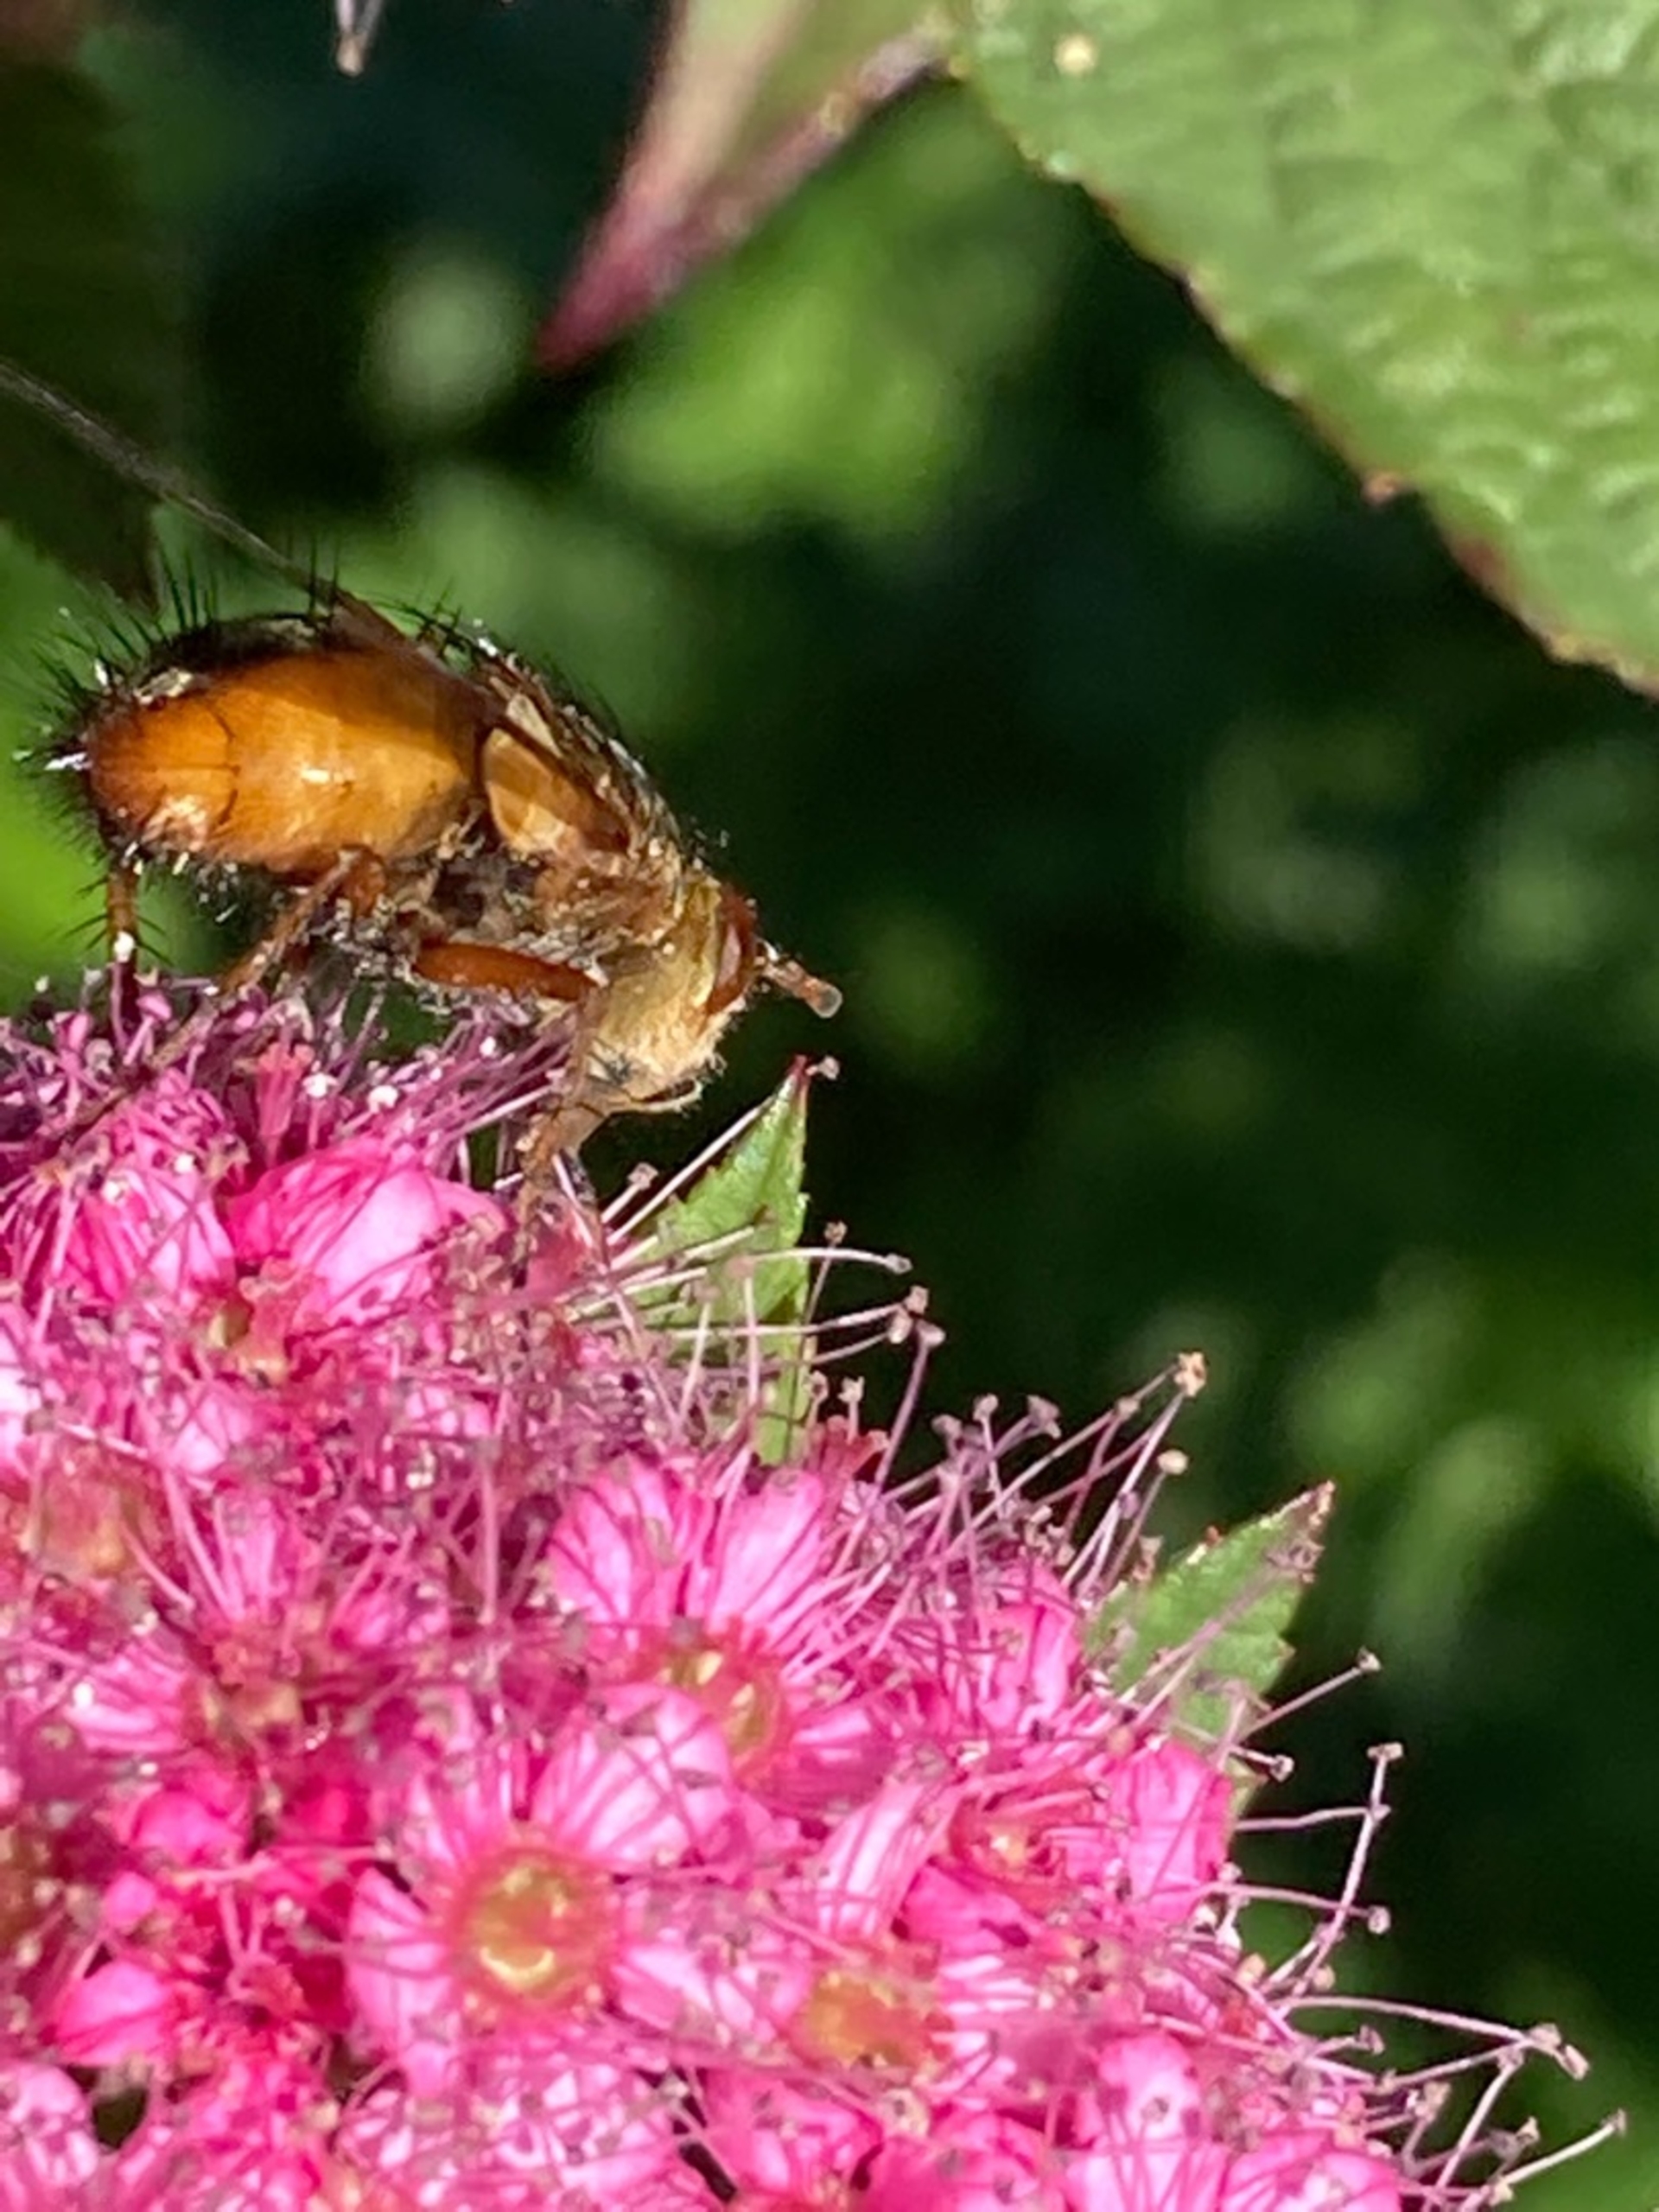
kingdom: Animalia
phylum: Arthropoda
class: Insecta
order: Diptera
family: Tachinidae
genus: Tachina
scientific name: Tachina fera
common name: Mellemfluen oskar
